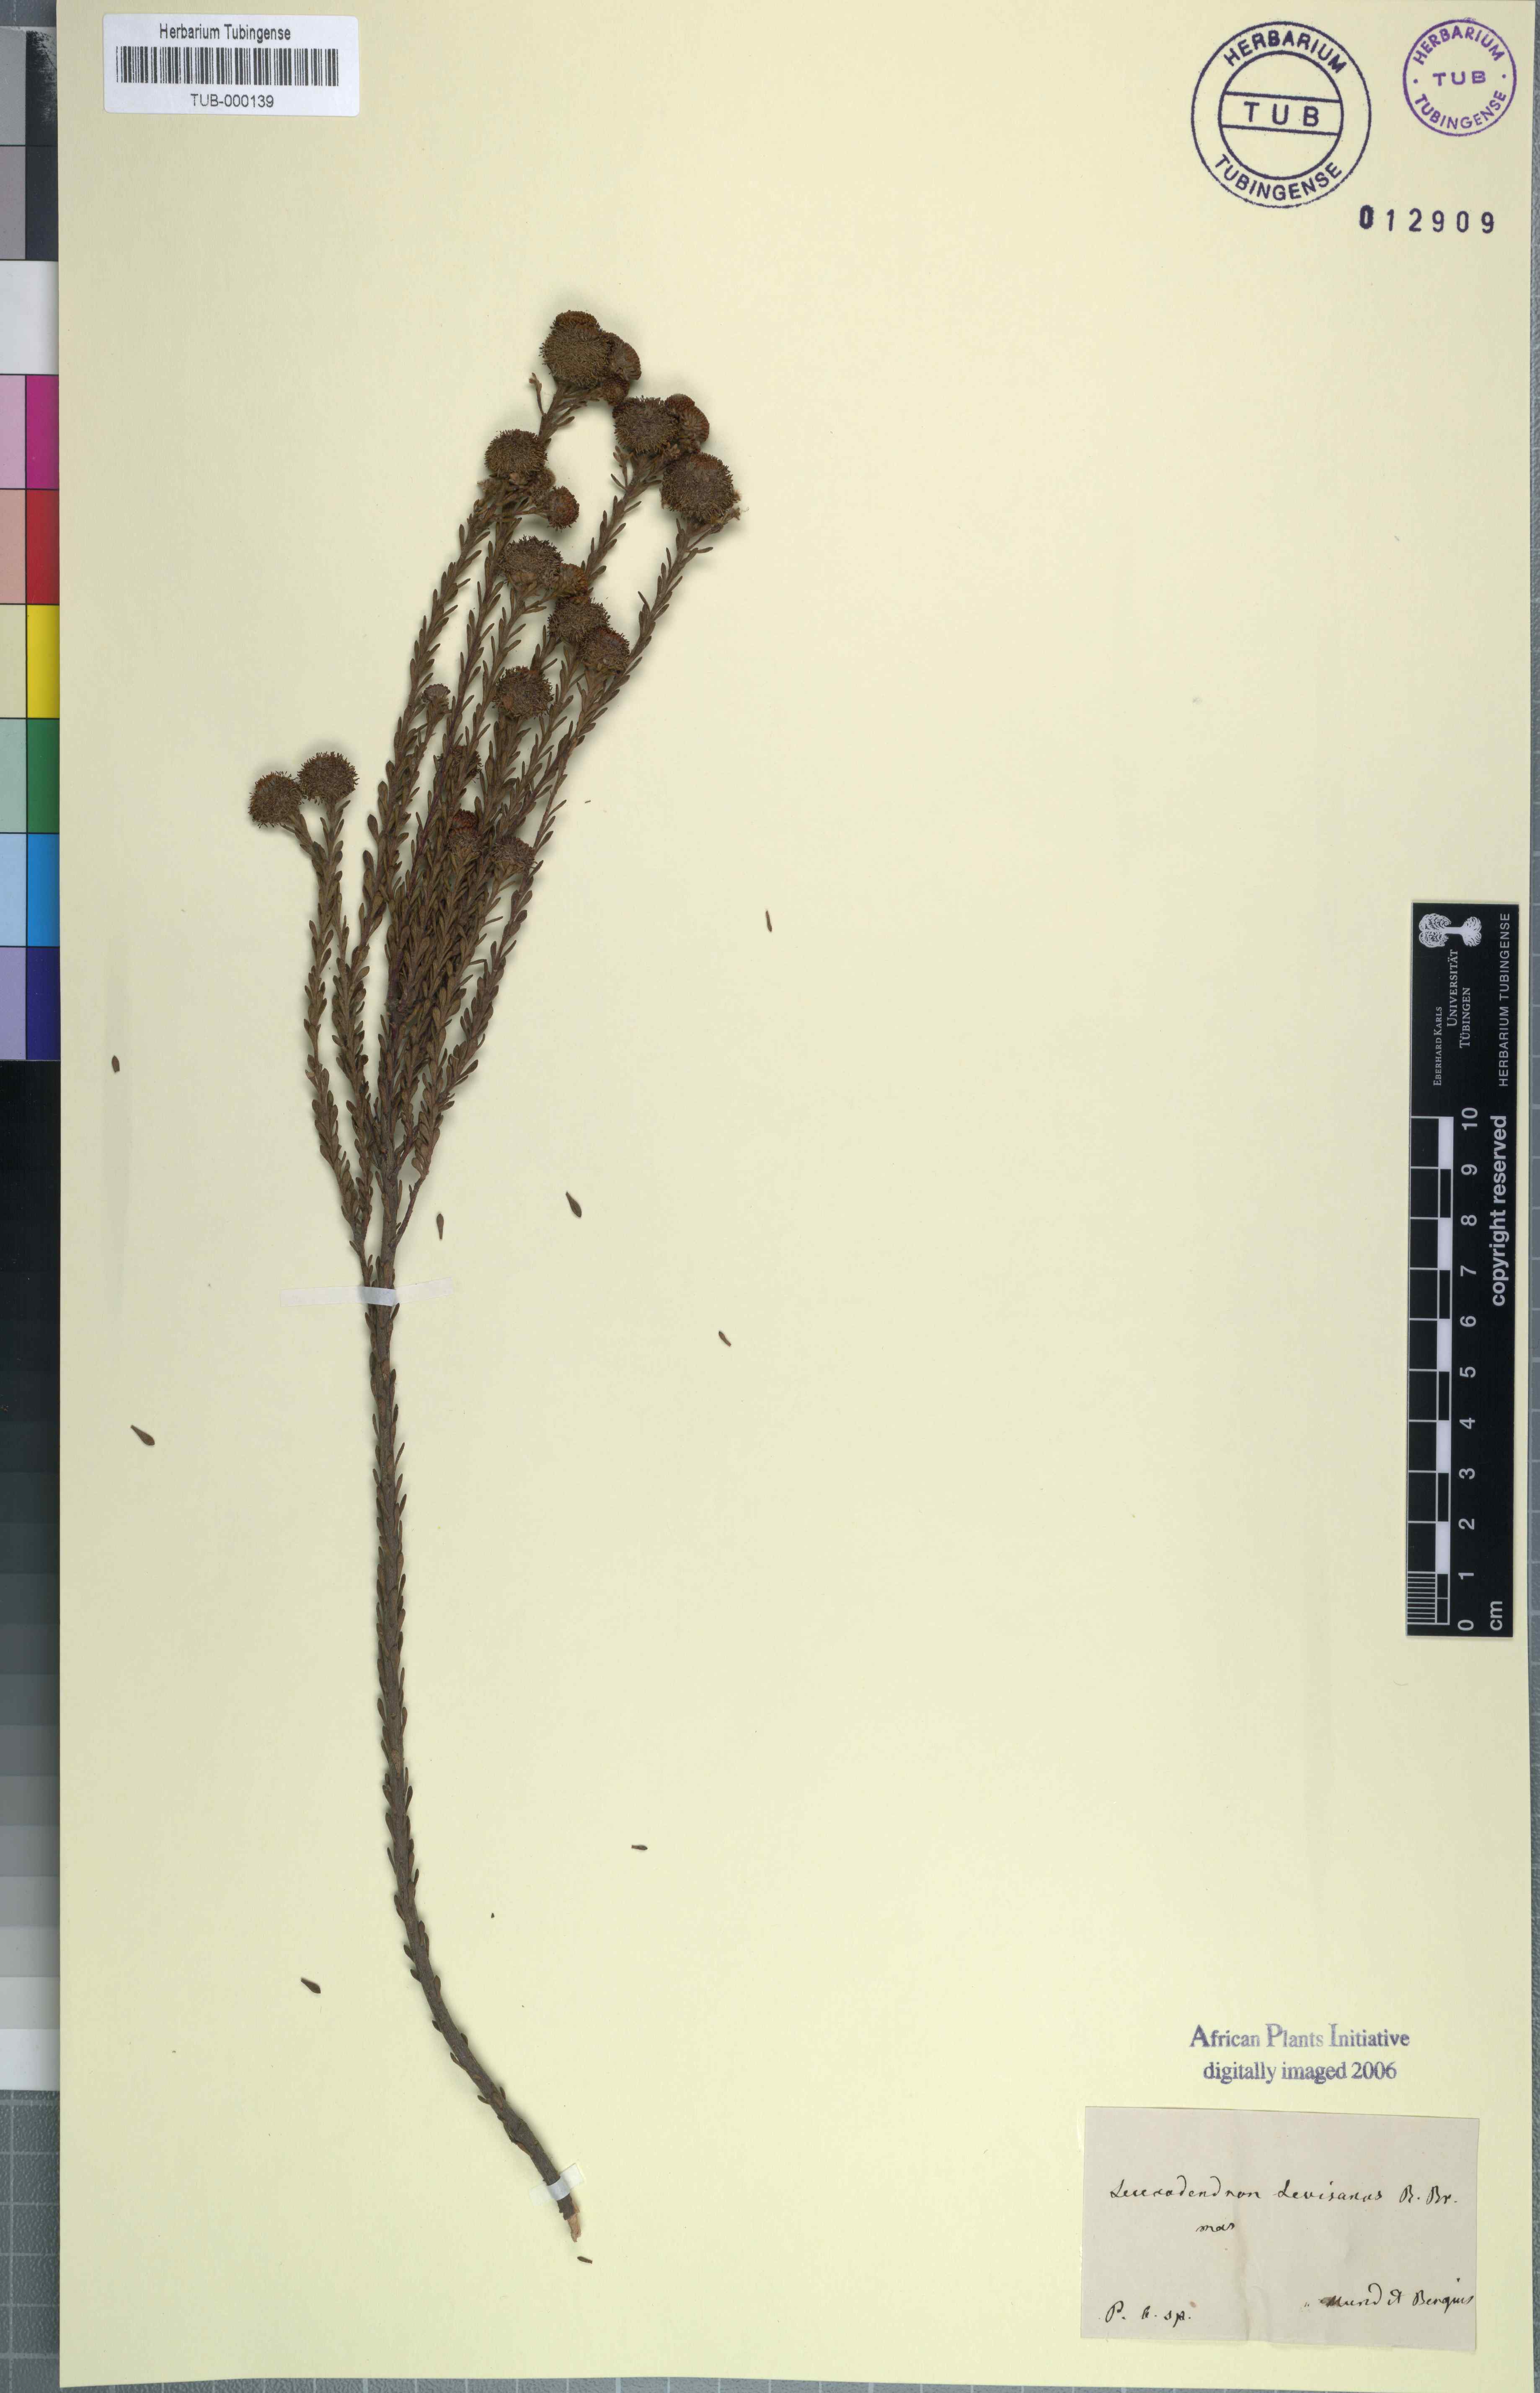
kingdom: Plantae
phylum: Tracheophyta
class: Magnoliopsida
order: Proteales
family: Proteaceae
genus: Leucadendron
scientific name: Leucadendron levisanus
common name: Cape flats conebush
